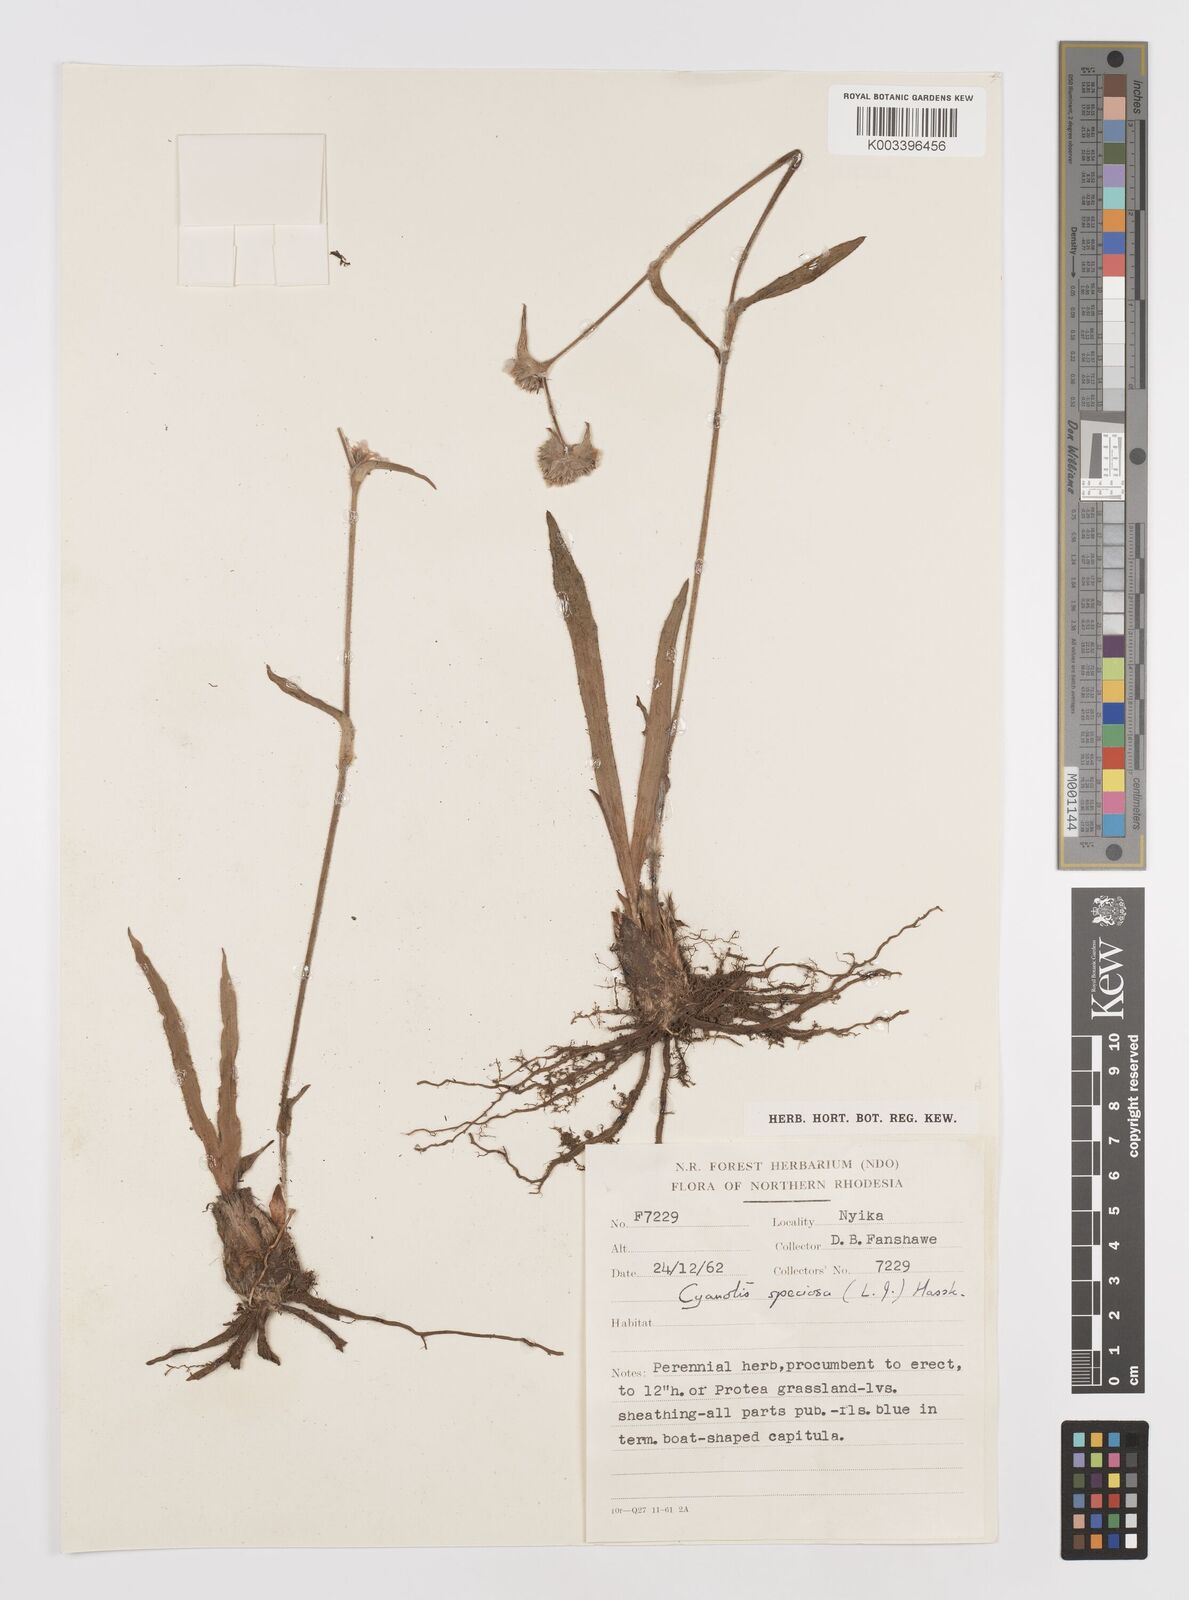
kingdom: Plantae
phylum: Tracheophyta
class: Liliopsida
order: Commelinales
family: Commelinaceae
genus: Cyanotis
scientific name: Cyanotis speciosa
